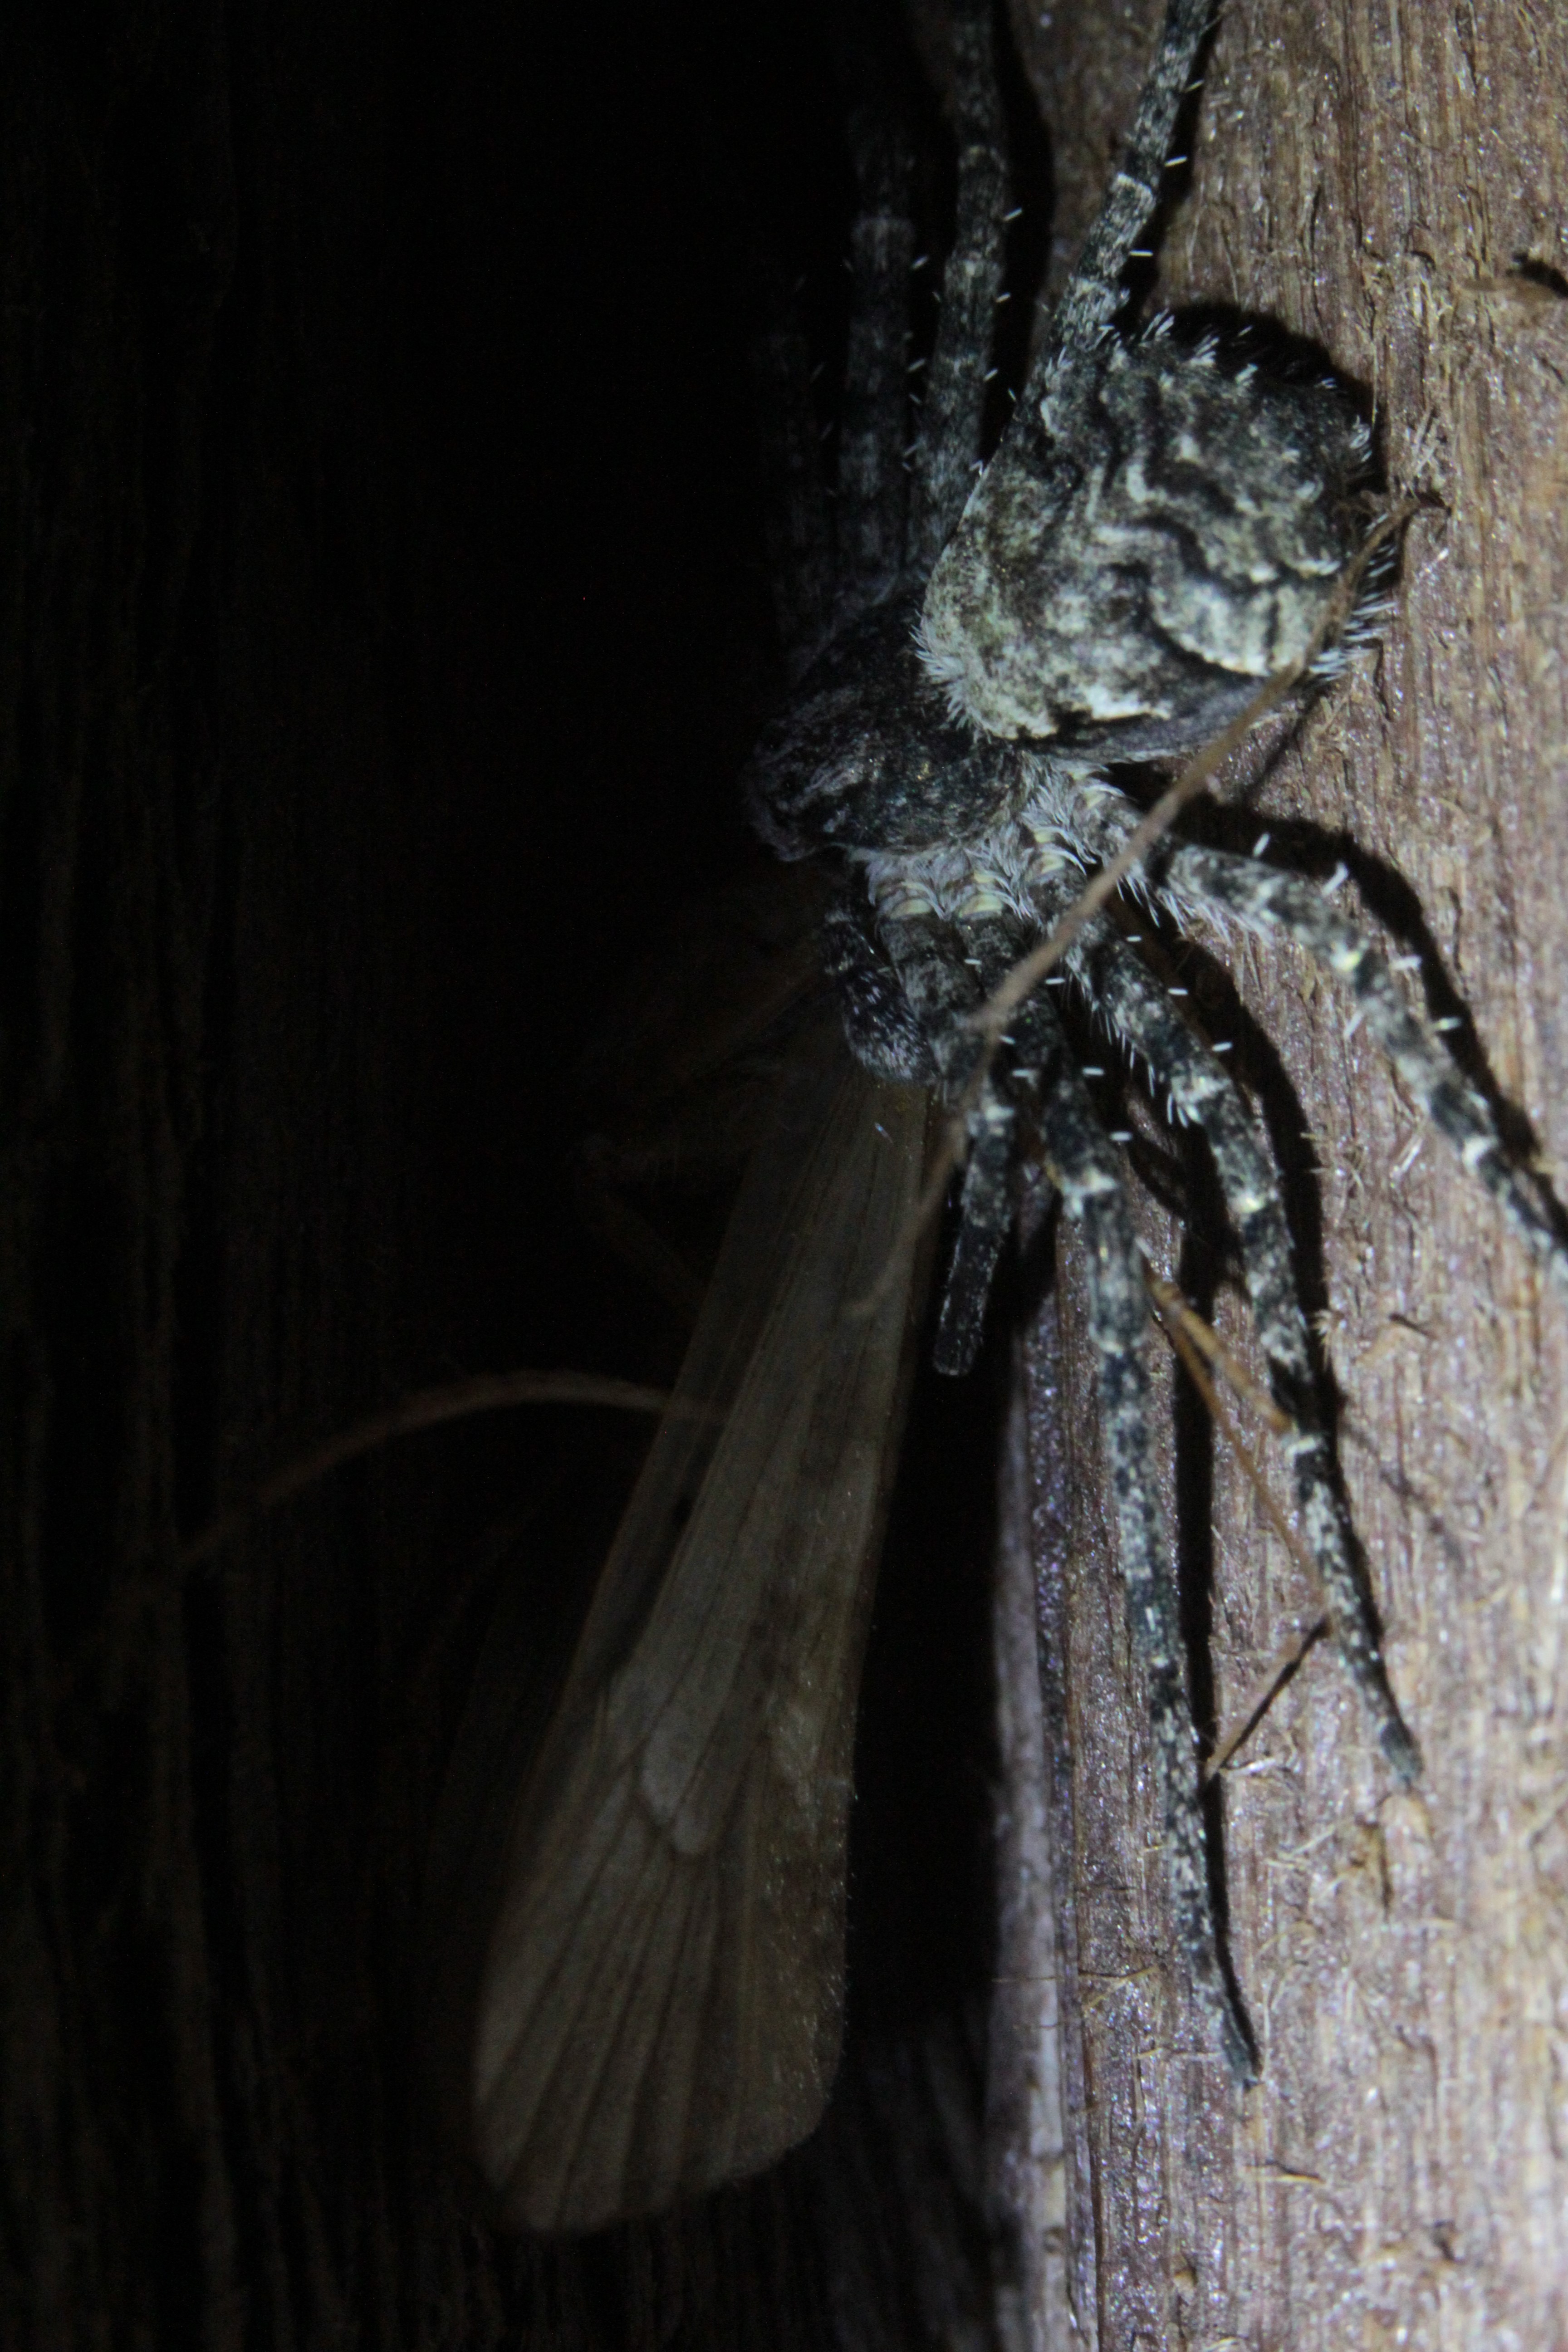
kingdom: Animalia
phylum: Arthropoda
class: Arachnida
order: Araneae
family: Philodromidae
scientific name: Philodromidae
